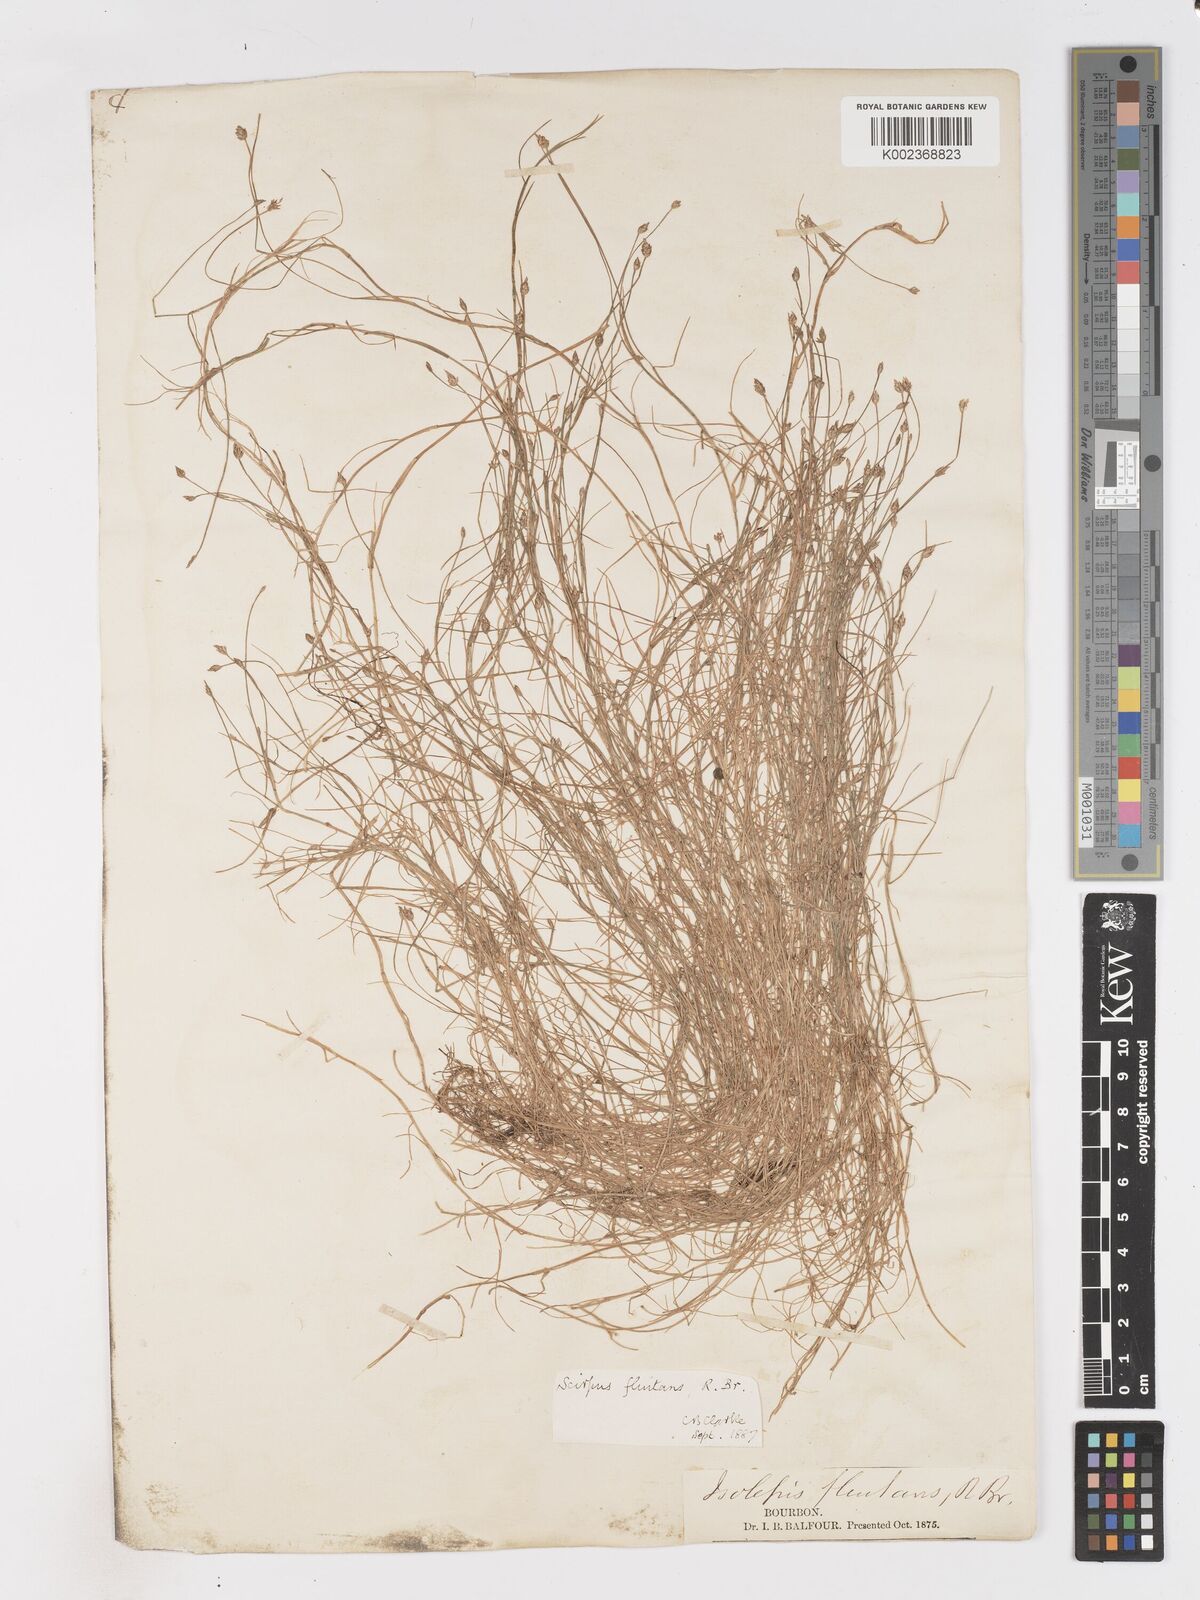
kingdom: Plantae
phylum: Tracheophyta
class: Liliopsida
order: Poales
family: Cyperaceae
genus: Isolepis
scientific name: Isolepis fluitans
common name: Floating club-rush
